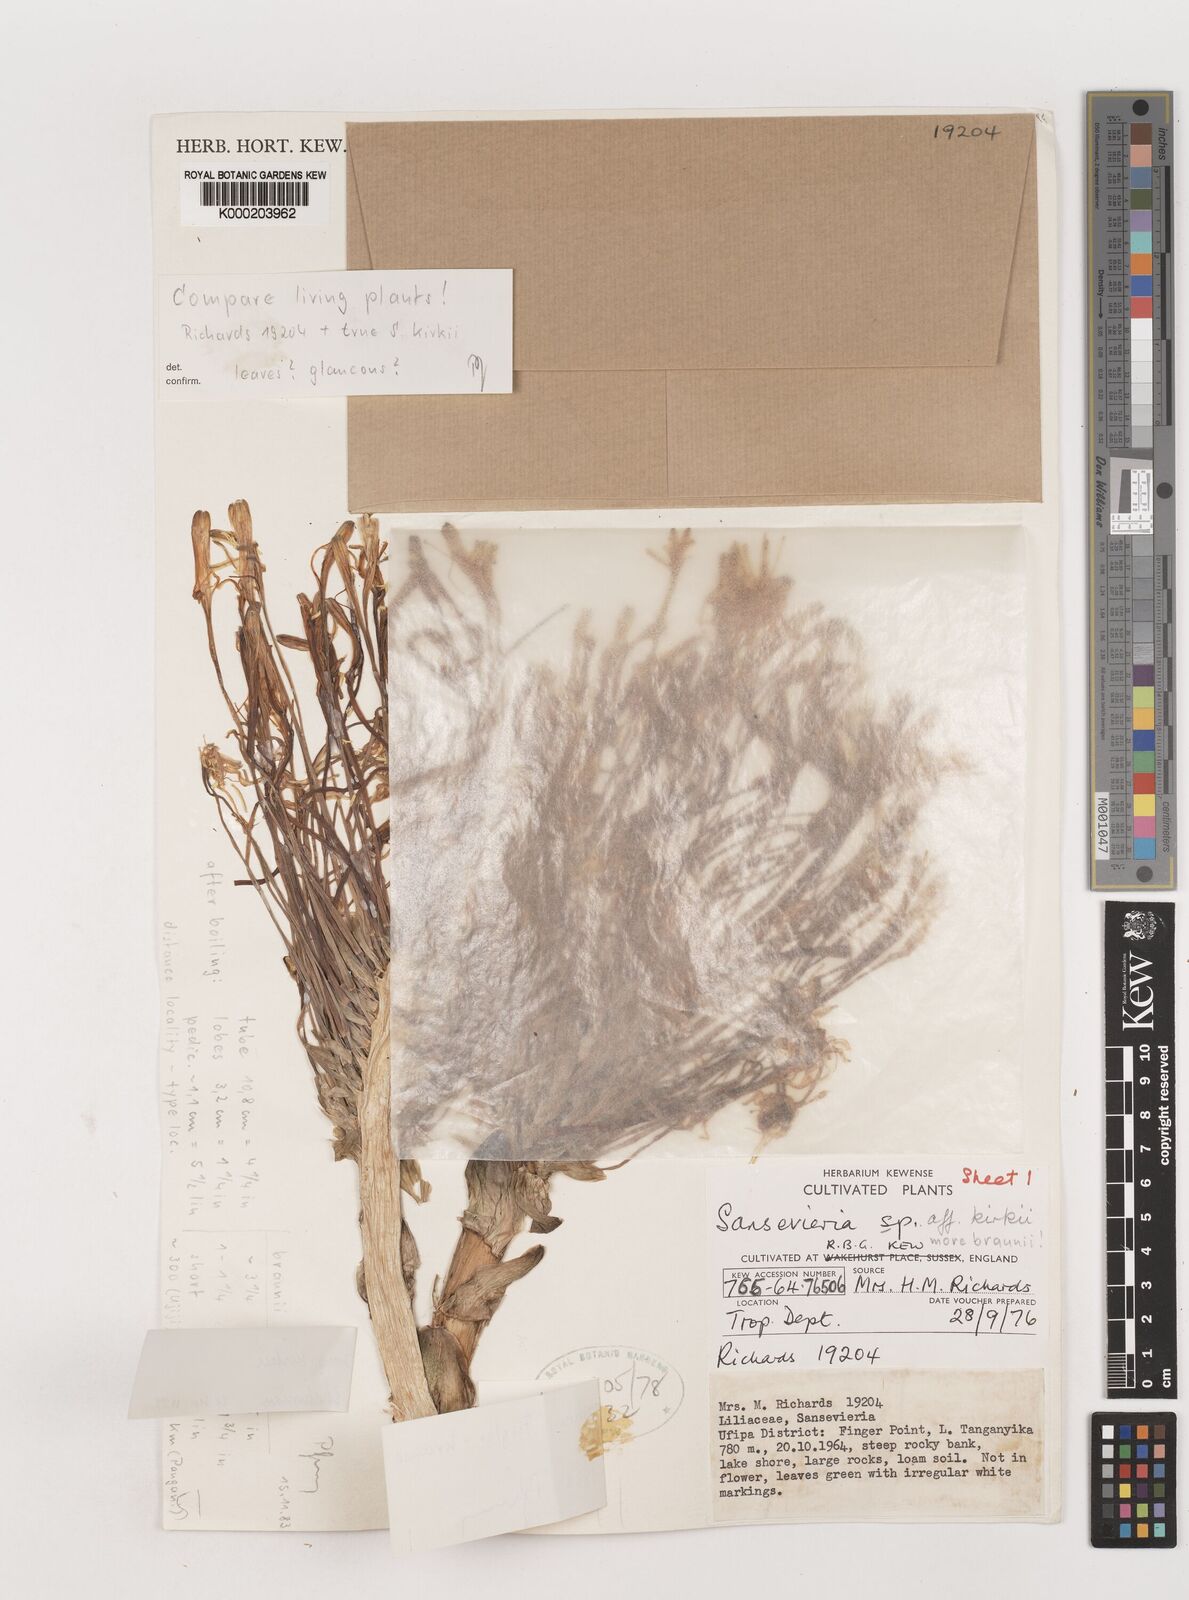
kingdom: Plantae
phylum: Tracheophyta
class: Liliopsida
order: Asparagales
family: Asparagaceae
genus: Dracaena
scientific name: Dracaena testudinea
